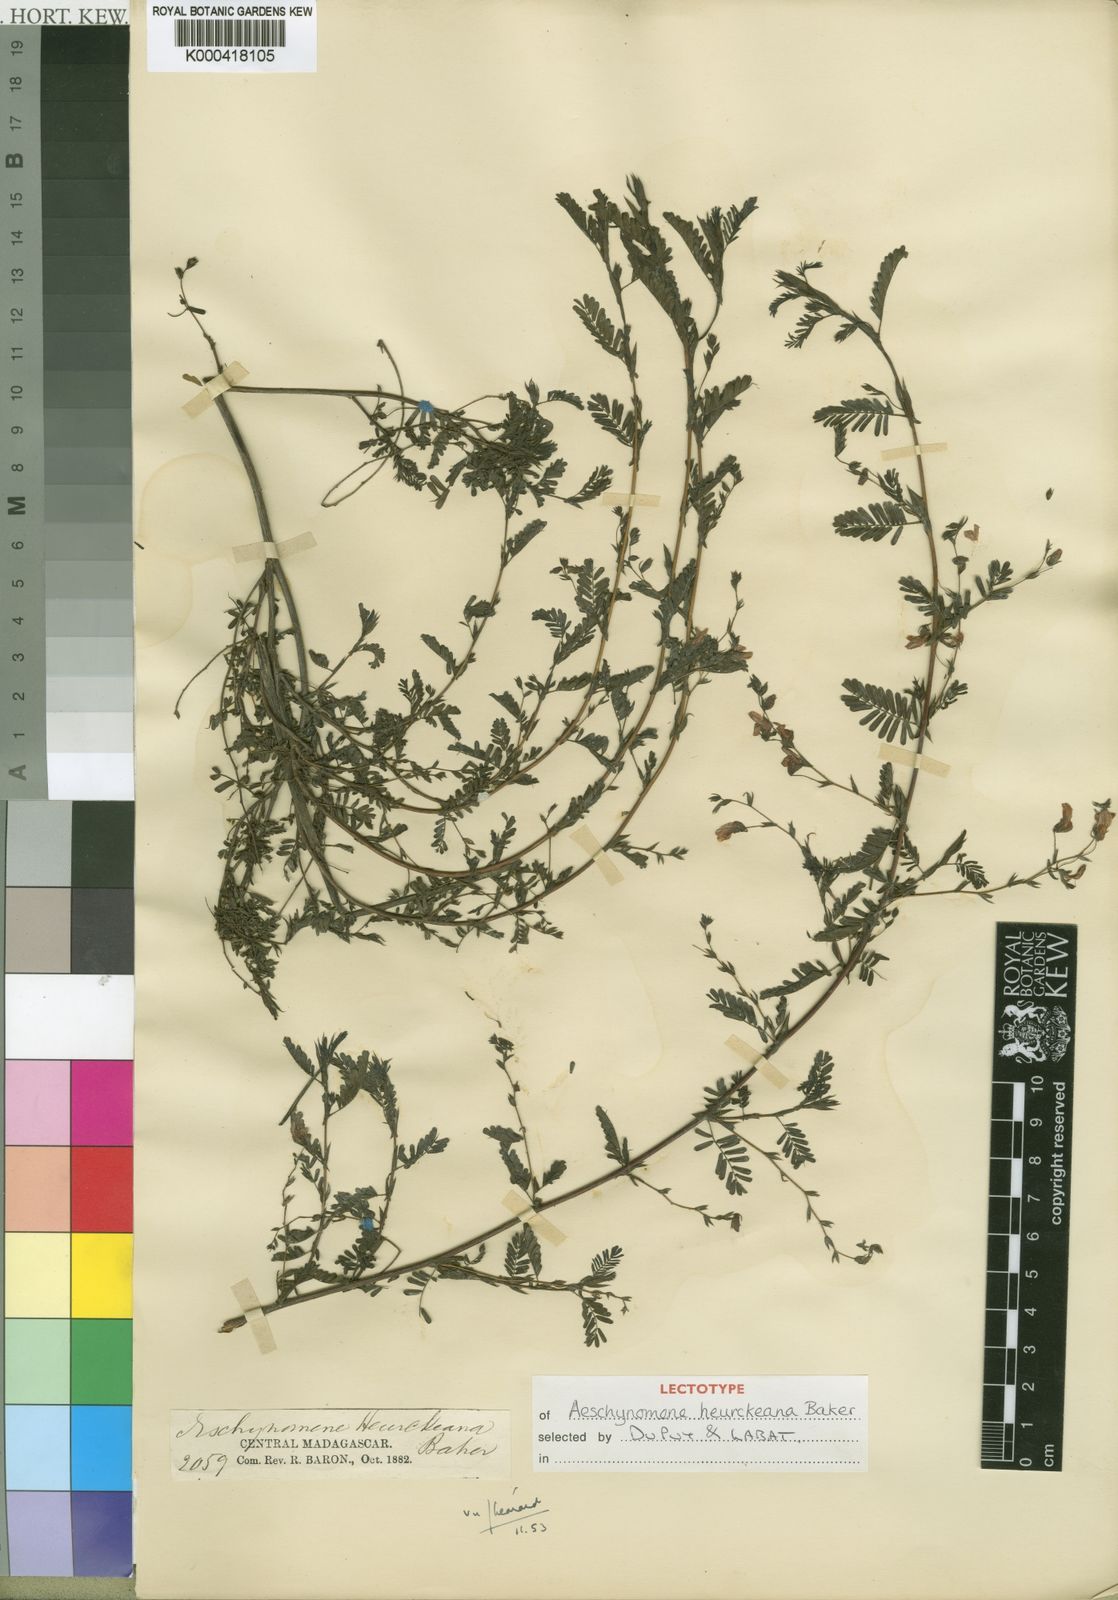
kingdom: Plantae
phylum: Tracheophyta
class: Magnoliopsida
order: Fabales
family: Fabaceae
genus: Aeschynomene
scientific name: Aeschynomene heurckeana
